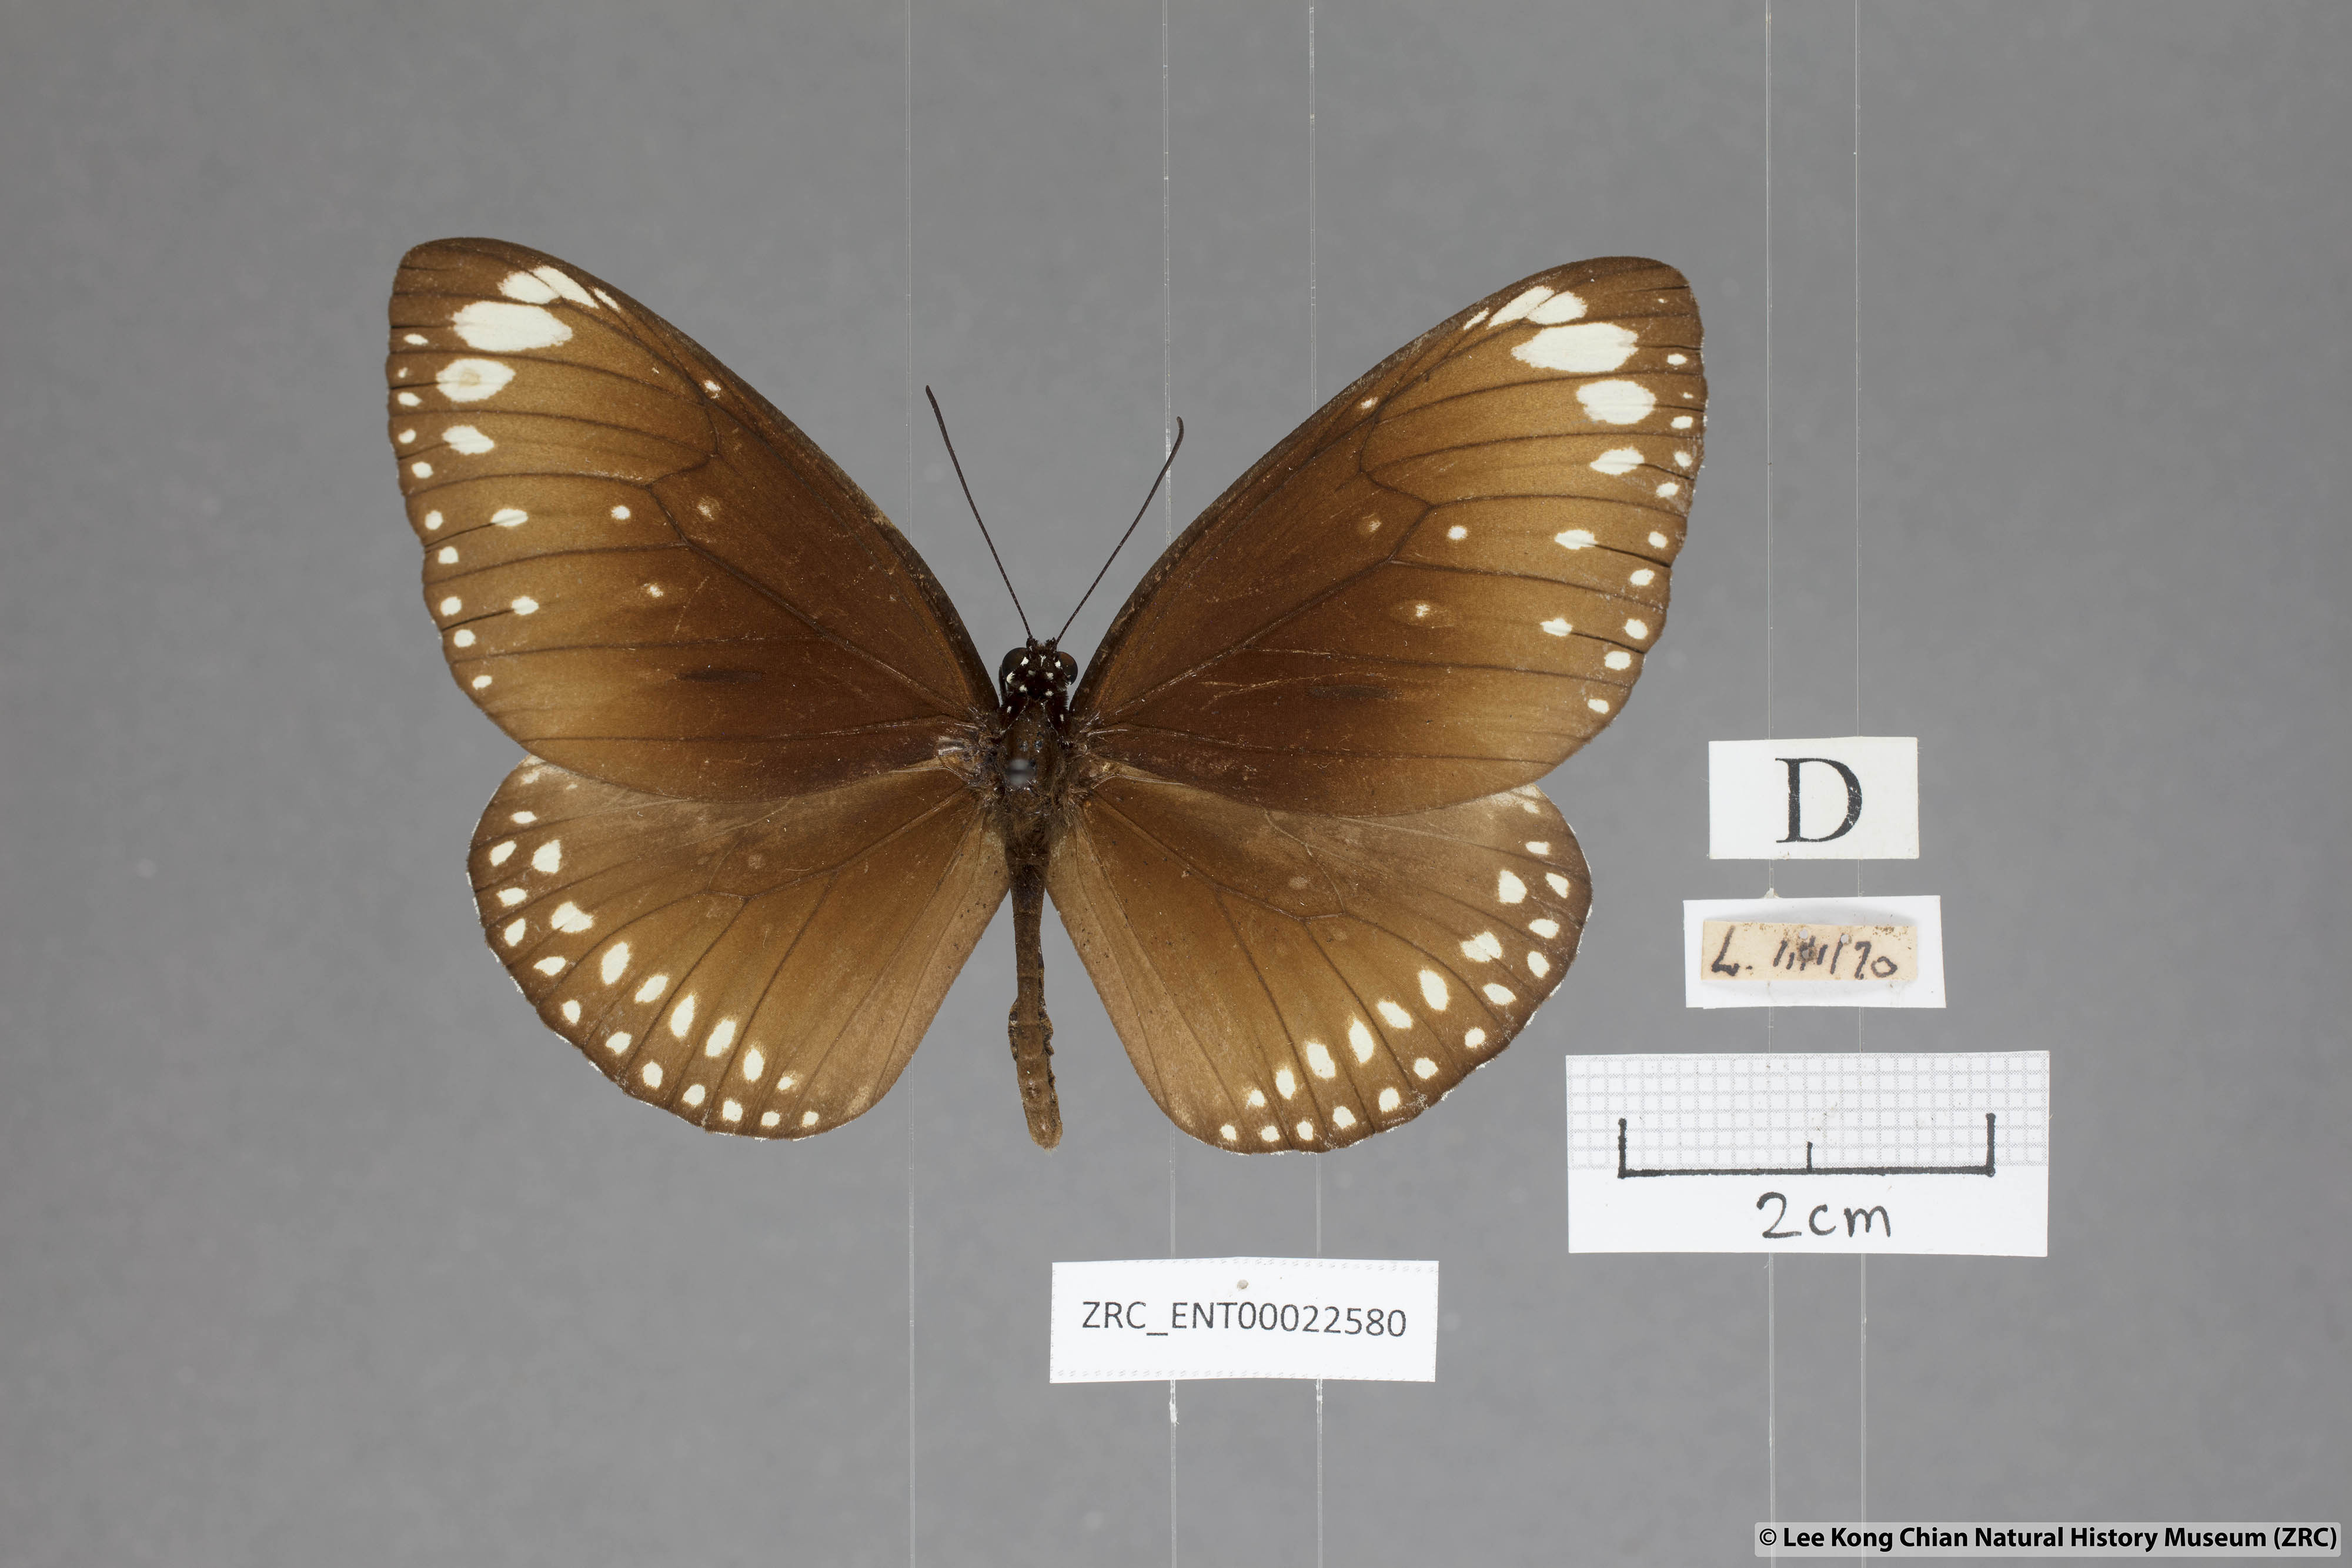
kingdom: Animalia
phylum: Arthropoda
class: Insecta
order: Lepidoptera
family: Nymphalidae
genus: Euploea
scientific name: Euploea core
